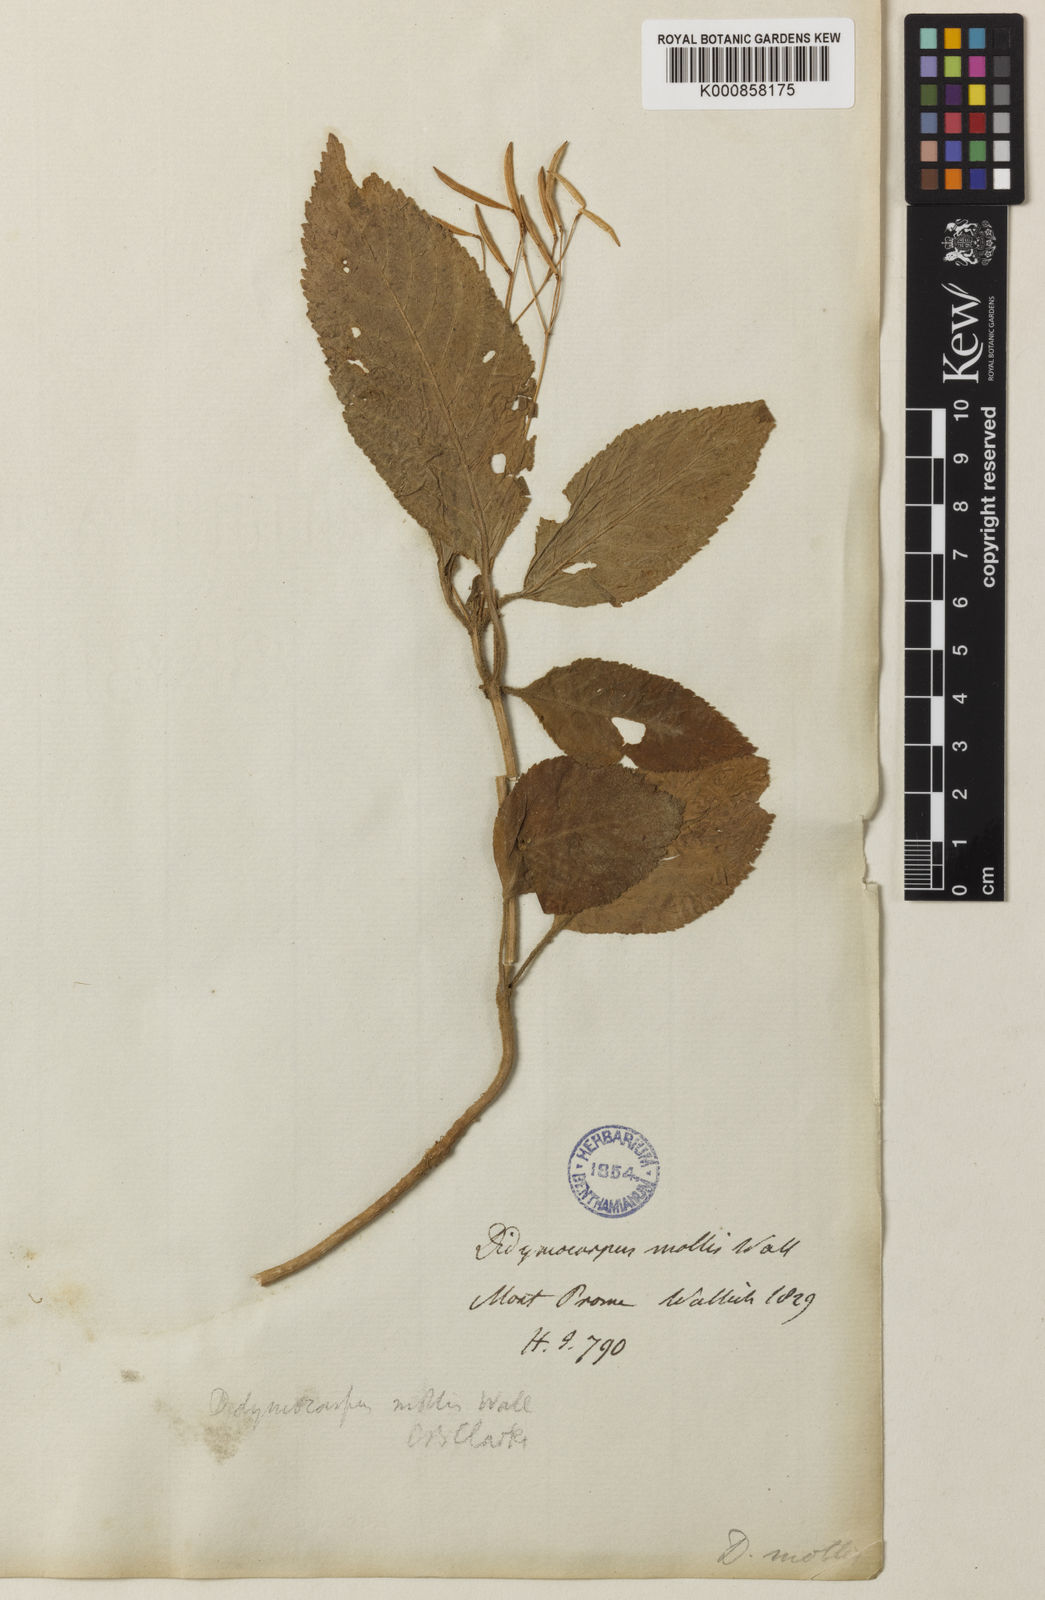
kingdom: Plantae
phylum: Tracheophyta
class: Magnoliopsida
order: Lamiales
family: Gesneriaceae
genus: Henckelia
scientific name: Henckelia
